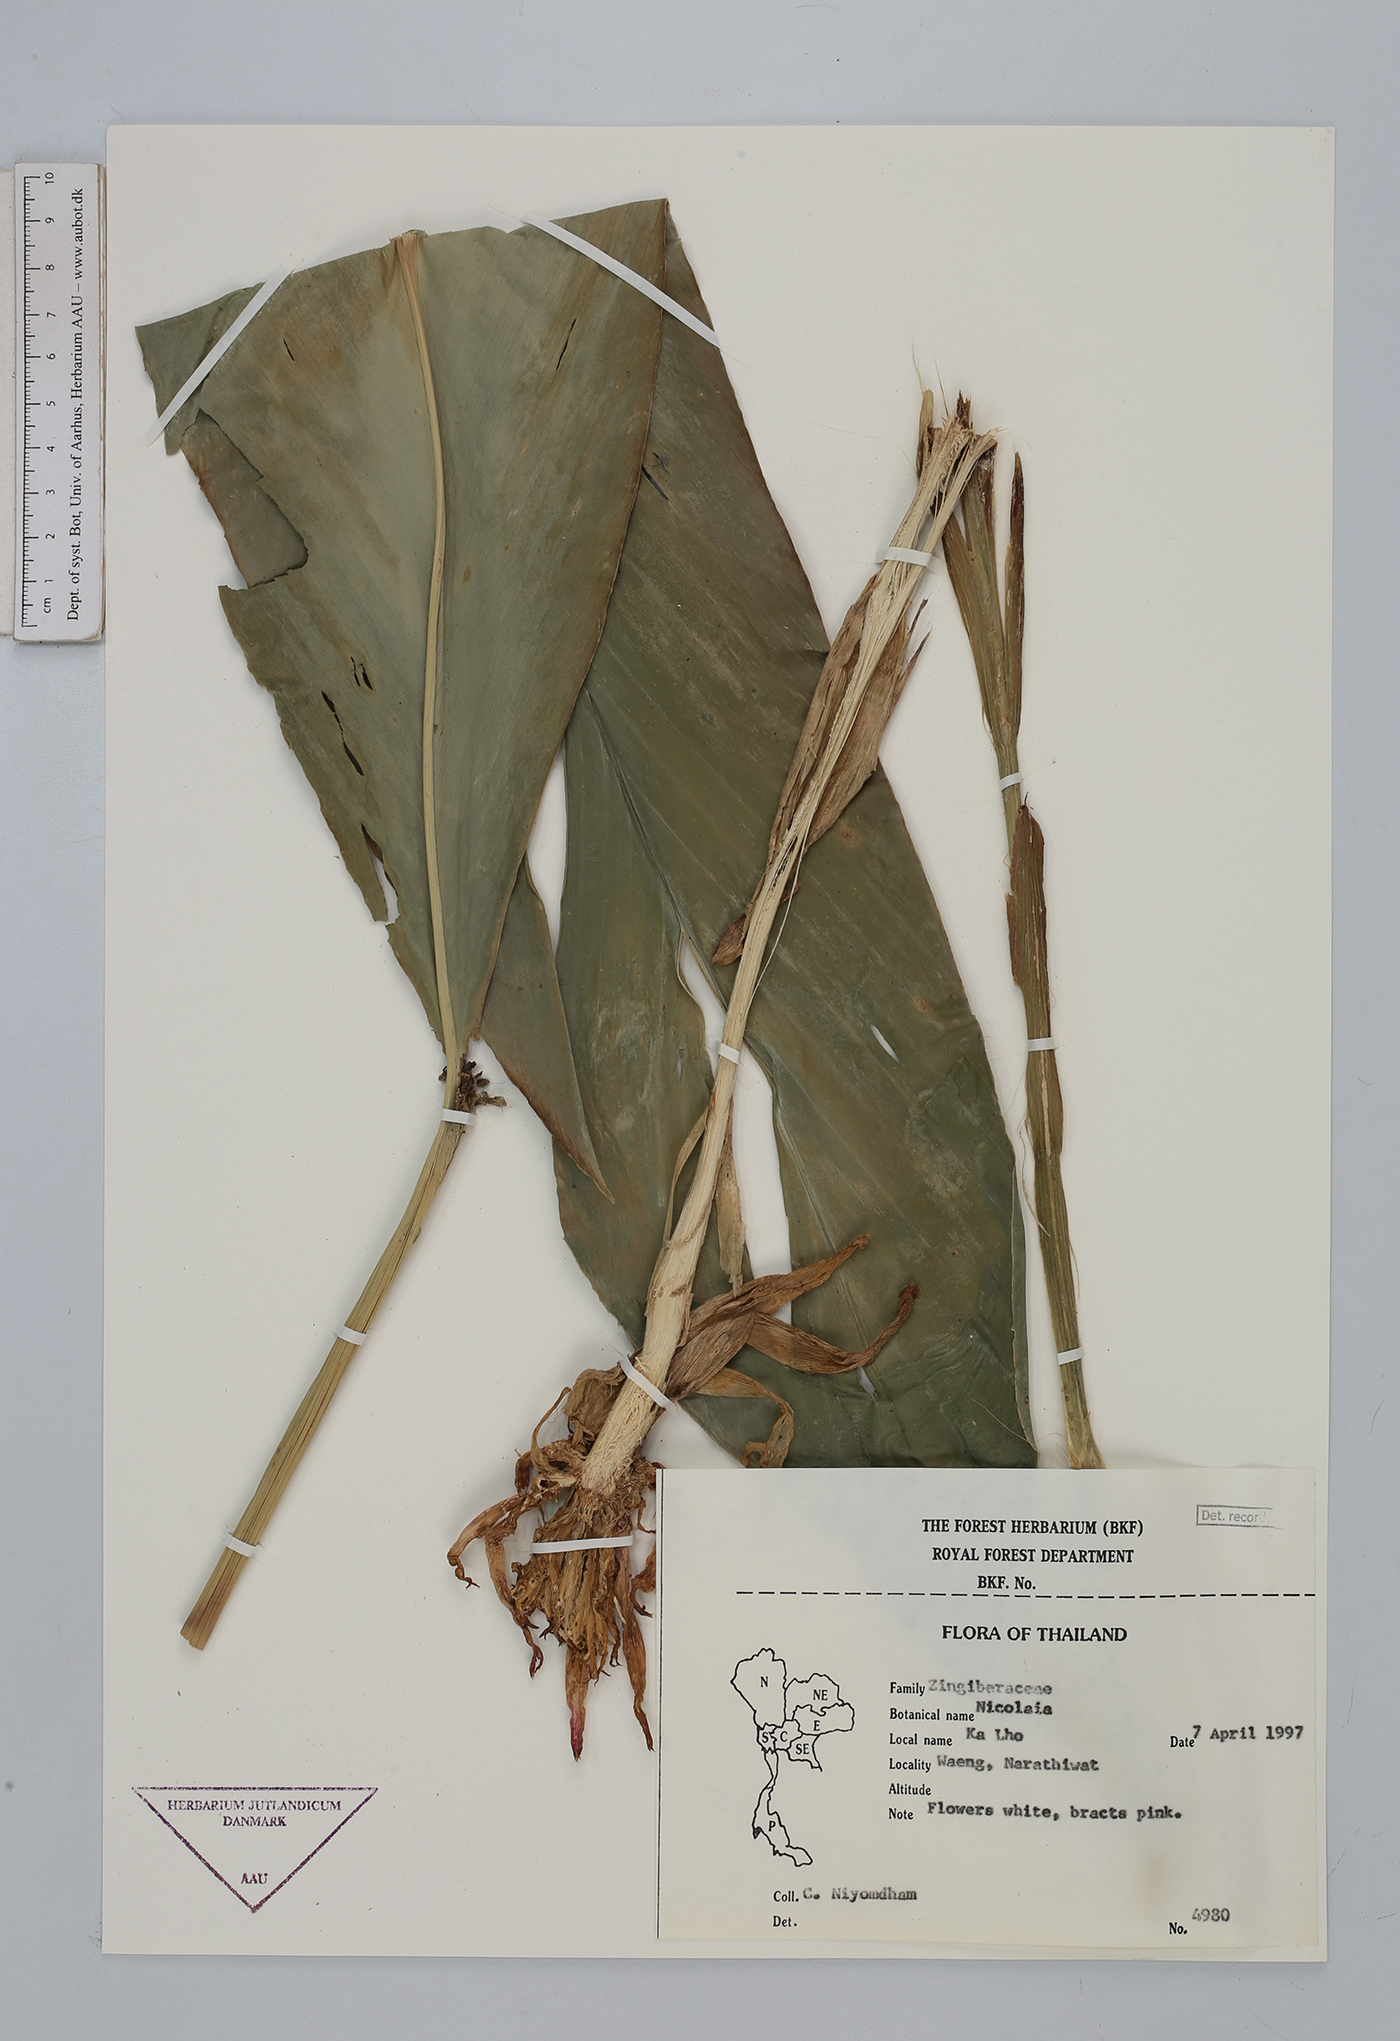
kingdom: Plantae
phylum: Tracheophyta
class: Liliopsida
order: Zingiberales
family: Zingiberaceae
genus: Etlingera
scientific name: Etlingera
